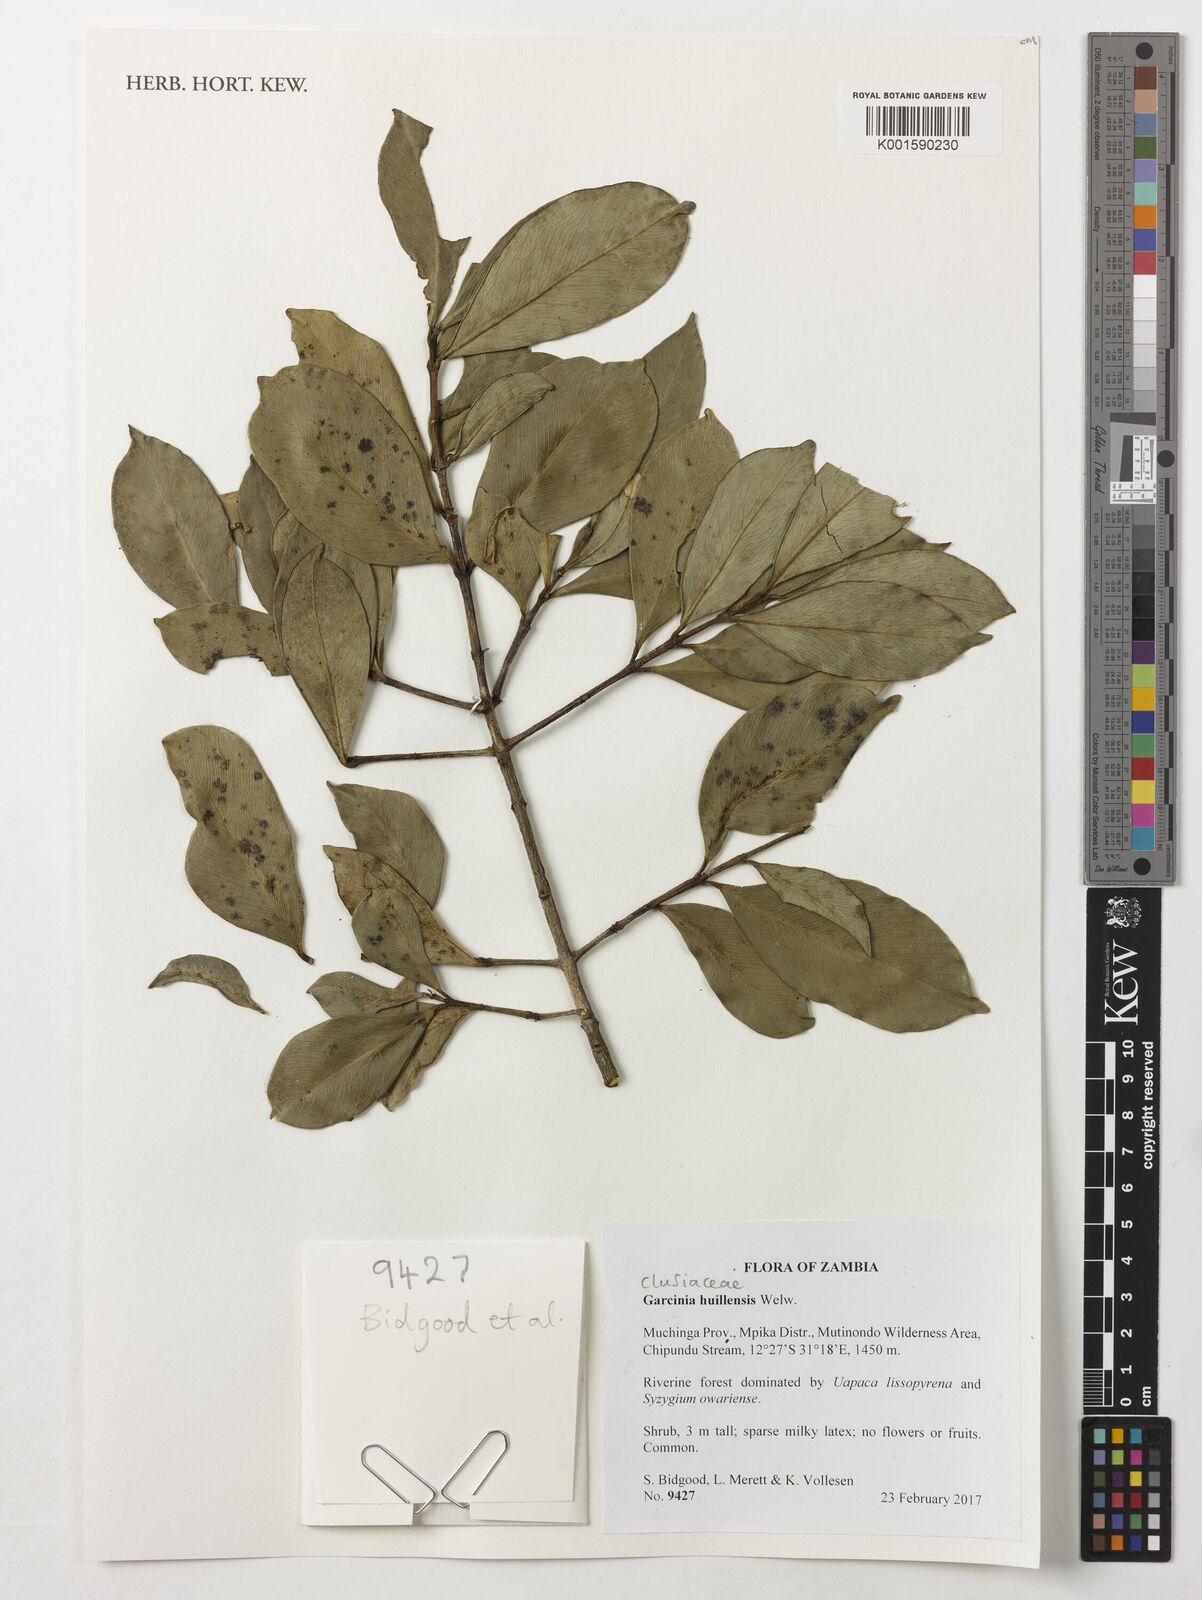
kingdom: Plantae
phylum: Tracheophyta
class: Magnoliopsida
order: Malpighiales
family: Clusiaceae
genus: Garcinia
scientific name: Garcinia huillensis
